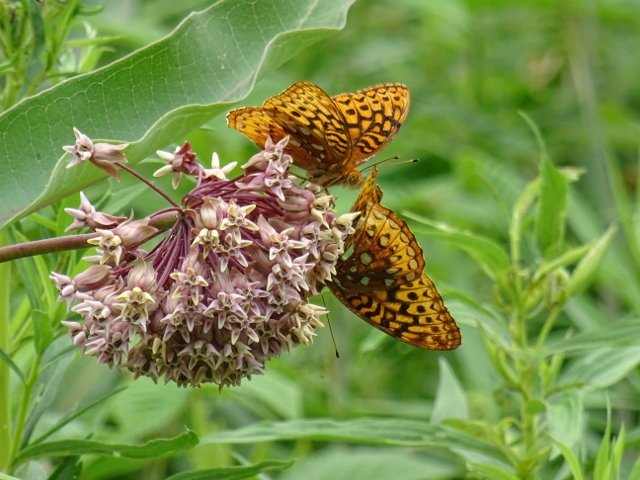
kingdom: Animalia
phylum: Arthropoda
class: Insecta
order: Lepidoptera
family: Nymphalidae
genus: Speyeria
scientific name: Speyeria cybele
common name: Great Spangled Fritillary
